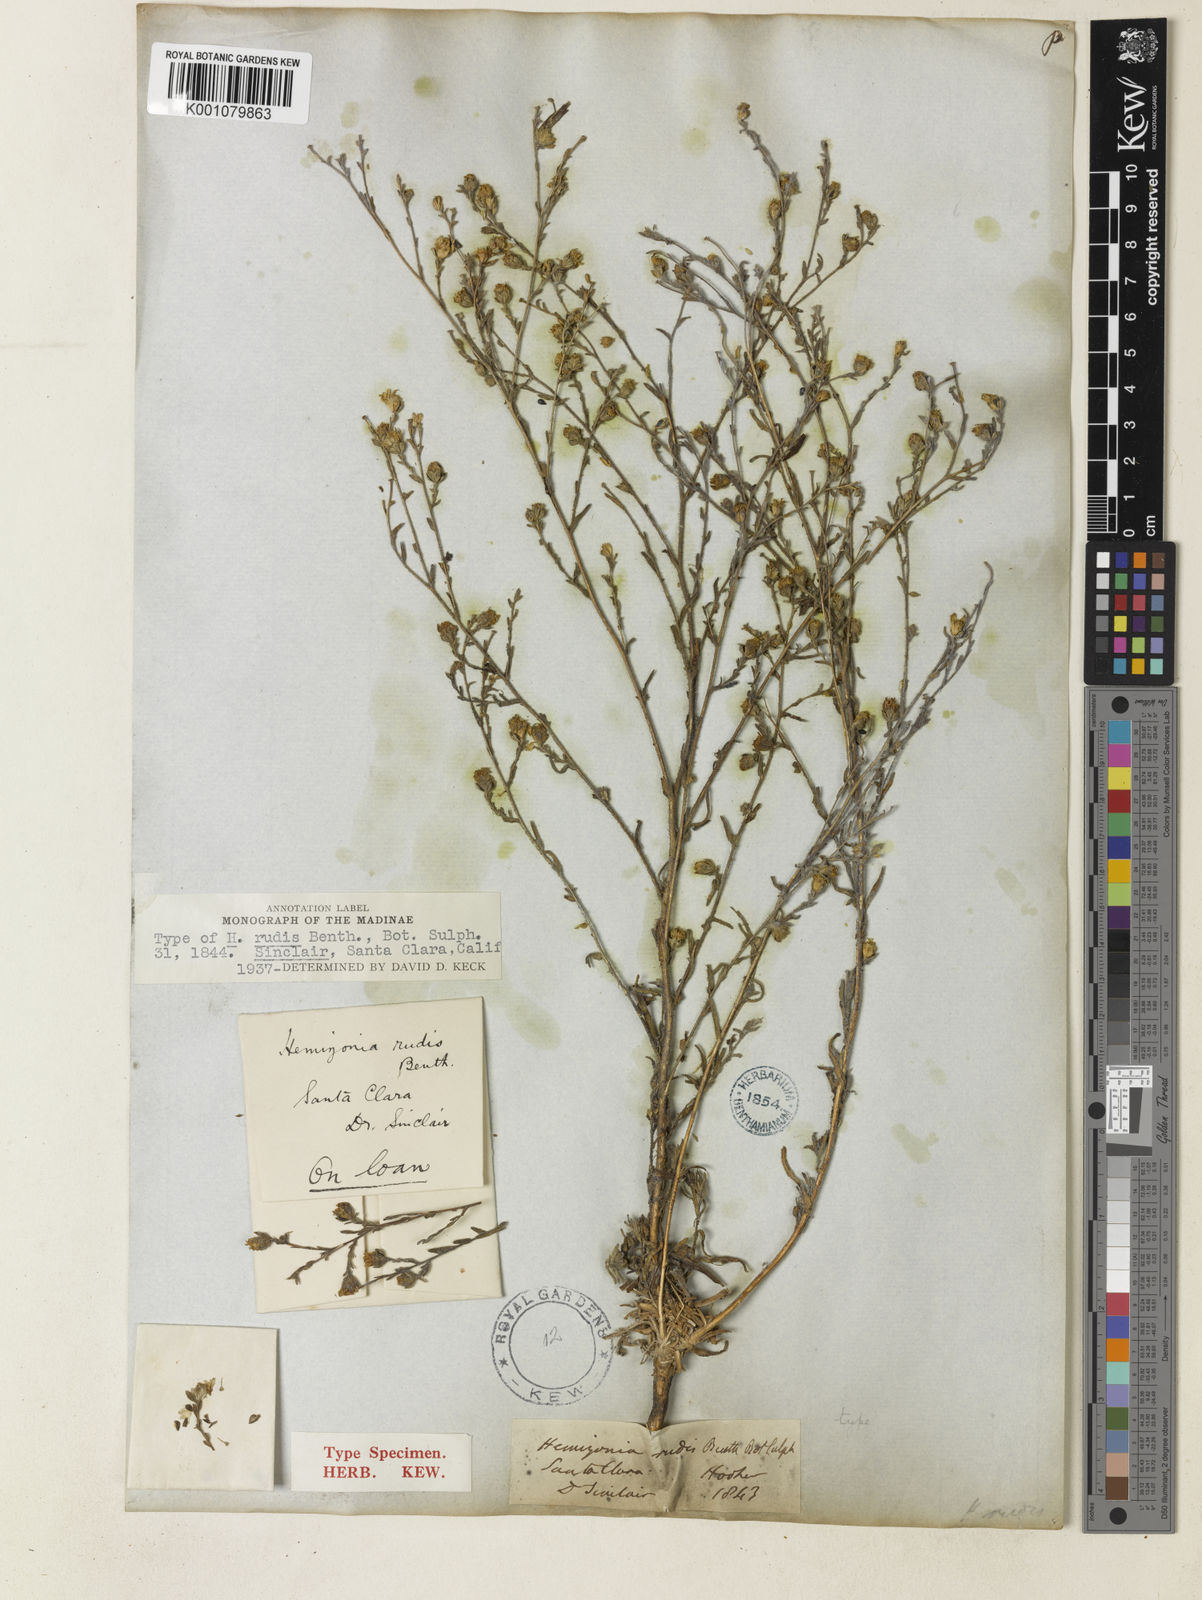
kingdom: Plantae
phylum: Tracheophyta
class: Magnoliopsida
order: Asterales
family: Asteraceae
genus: Hemizonia
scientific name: Hemizonia congesta
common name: Hayfield tarweed
